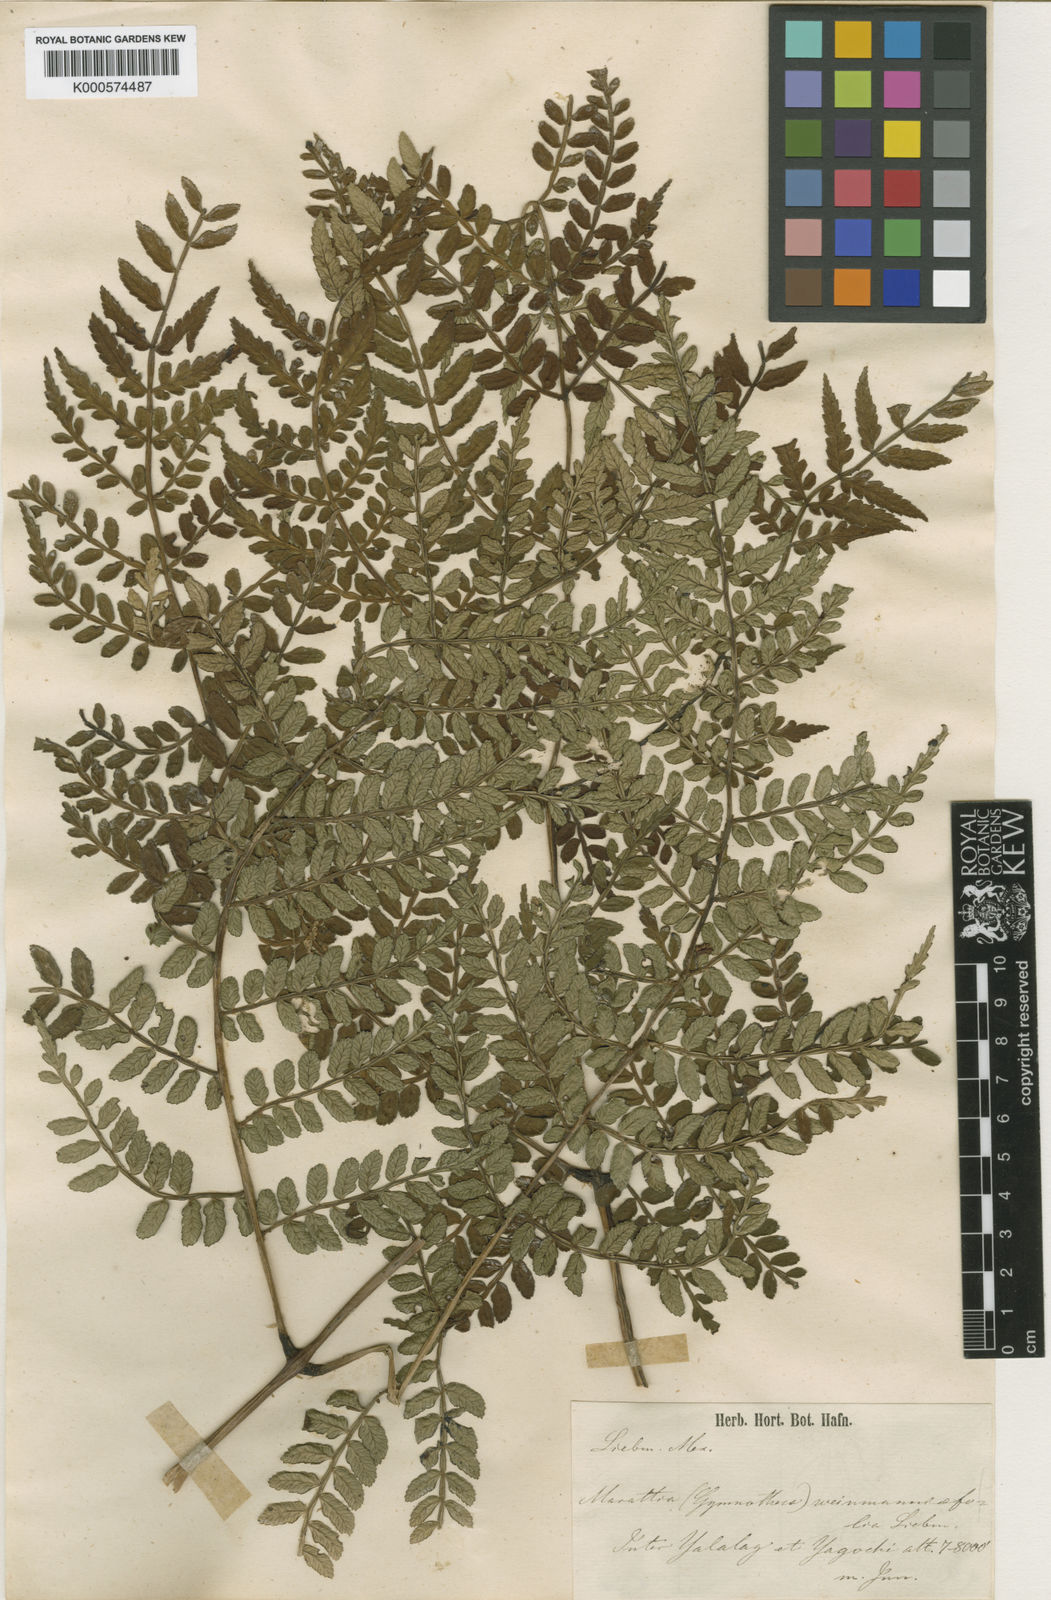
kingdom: Plantae
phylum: Tracheophyta
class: Polypodiopsida
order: Marattiales
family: Marattiaceae
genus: Marattia
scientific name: Marattia weinmanniifolia
